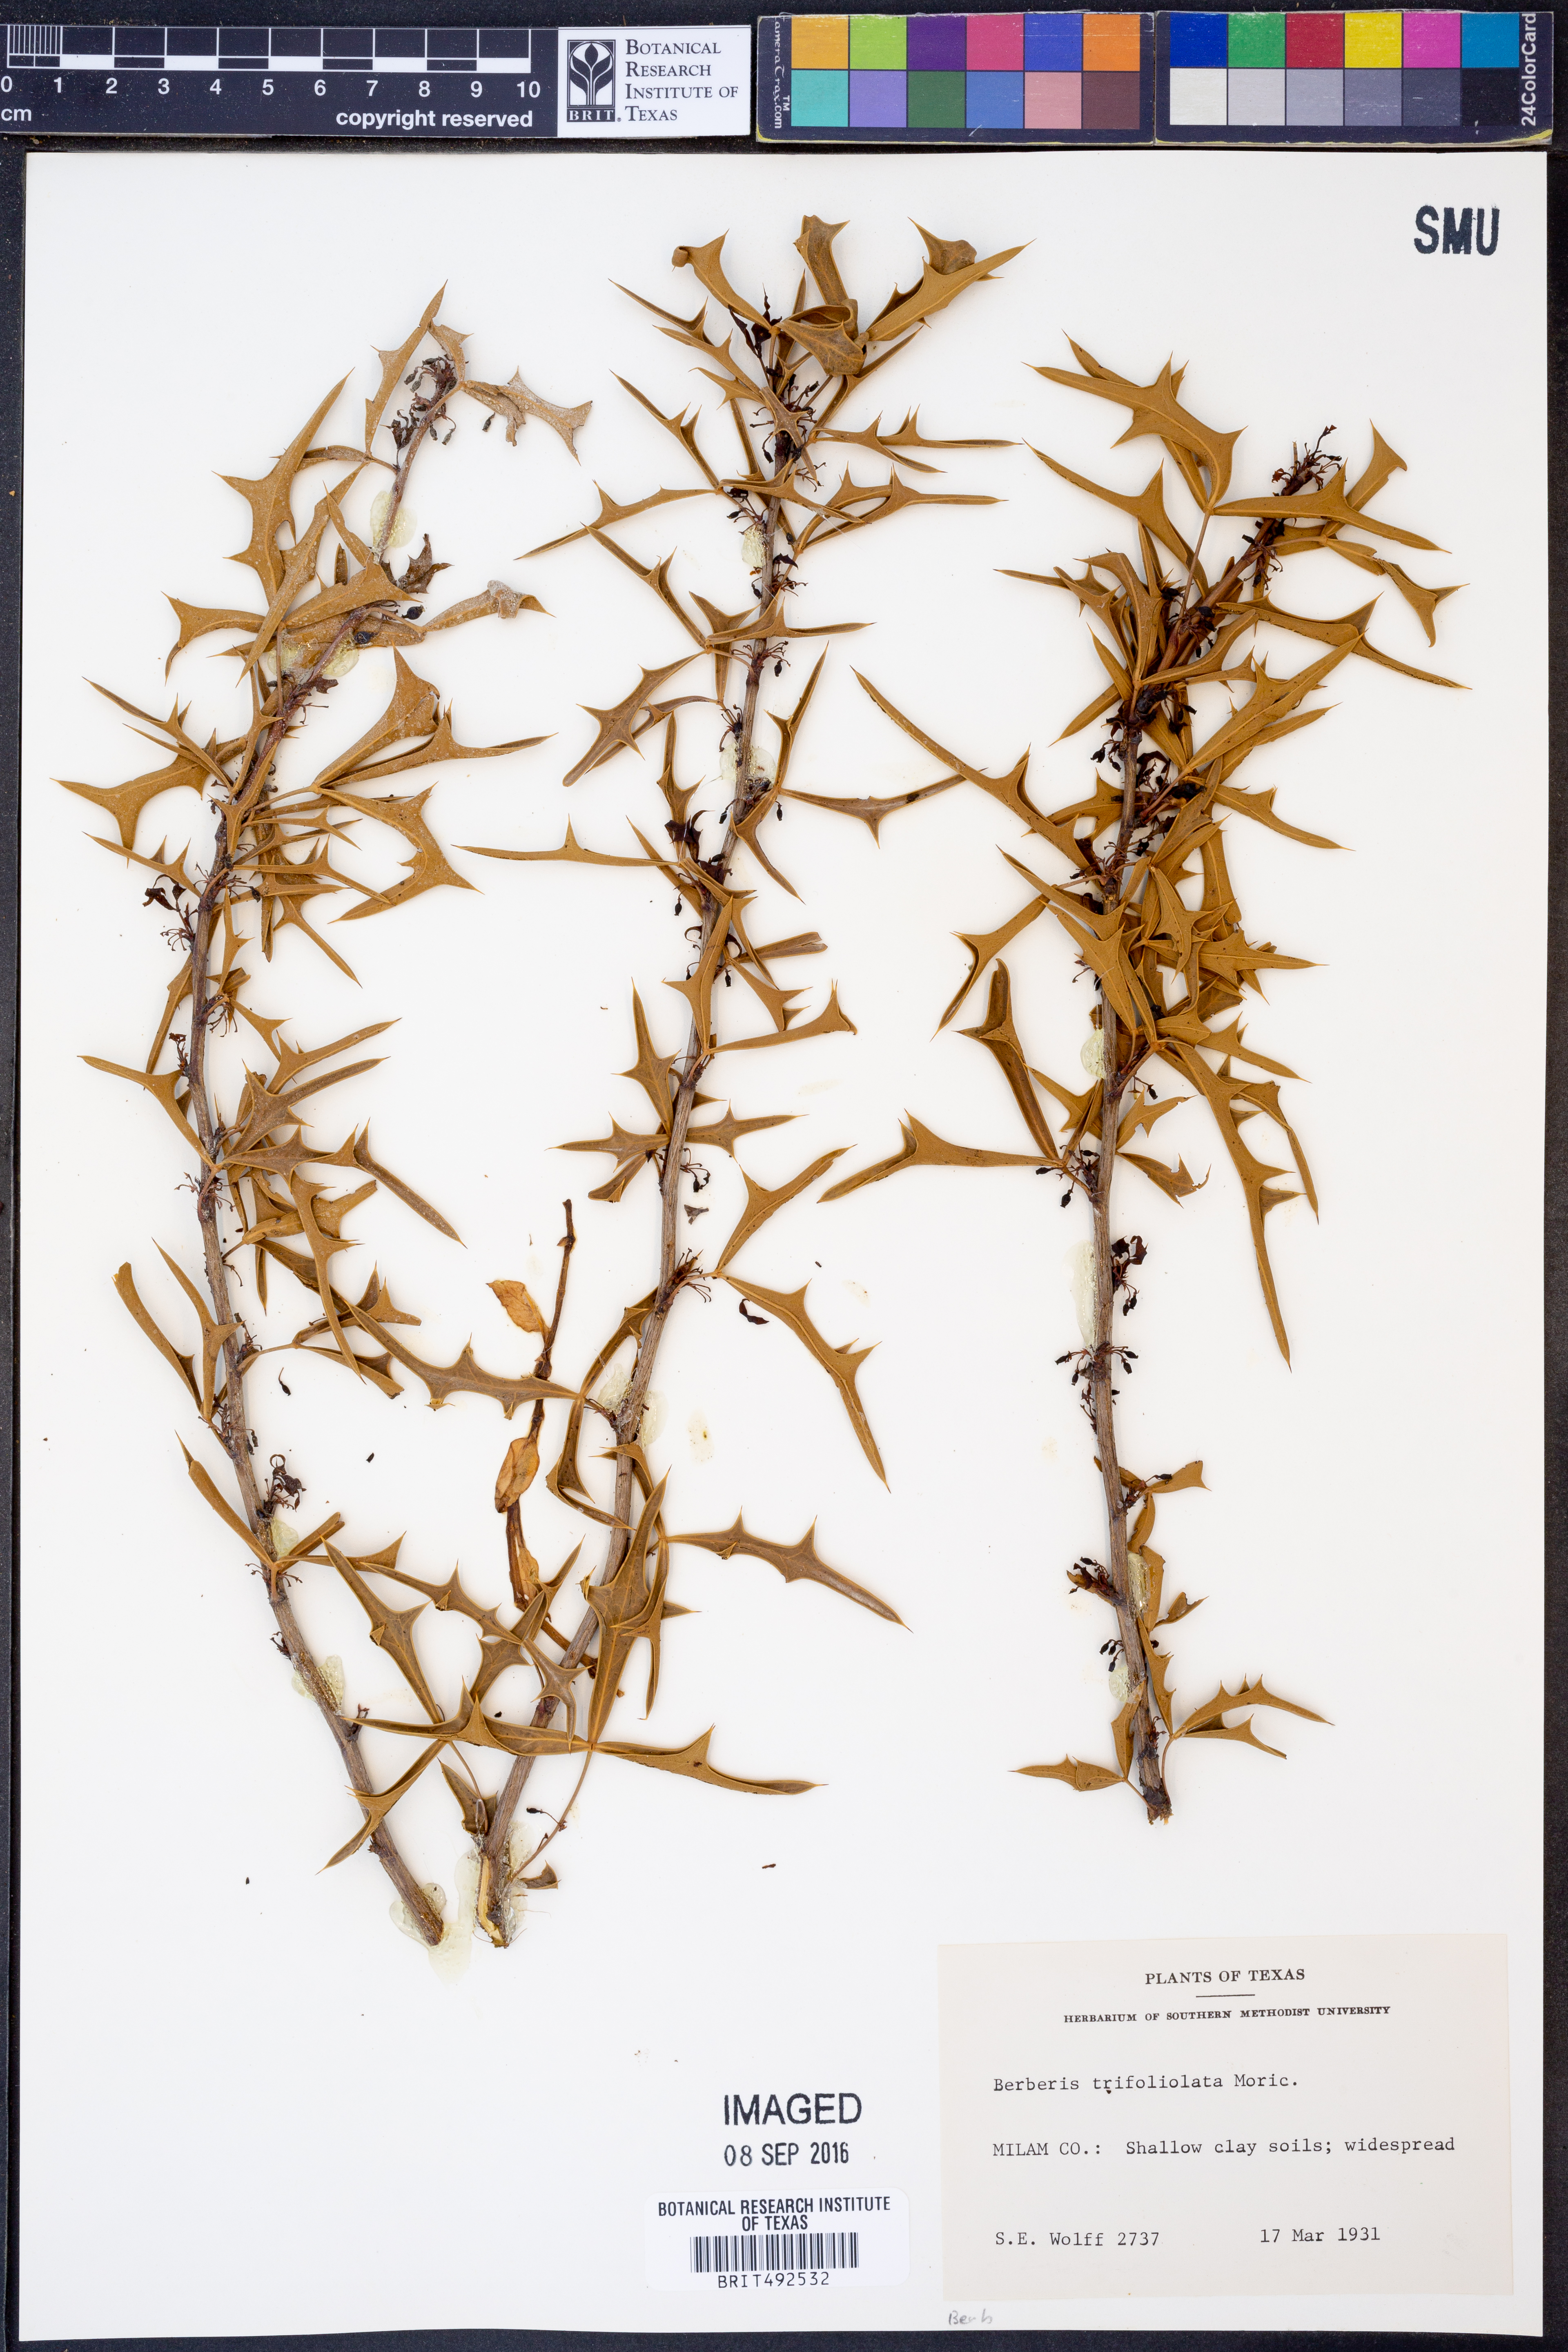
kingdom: Plantae
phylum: Tracheophyta
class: Magnoliopsida
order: Ranunculales
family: Berberidaceae
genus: Alloberberis
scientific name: Alloberberis trifoliolata
